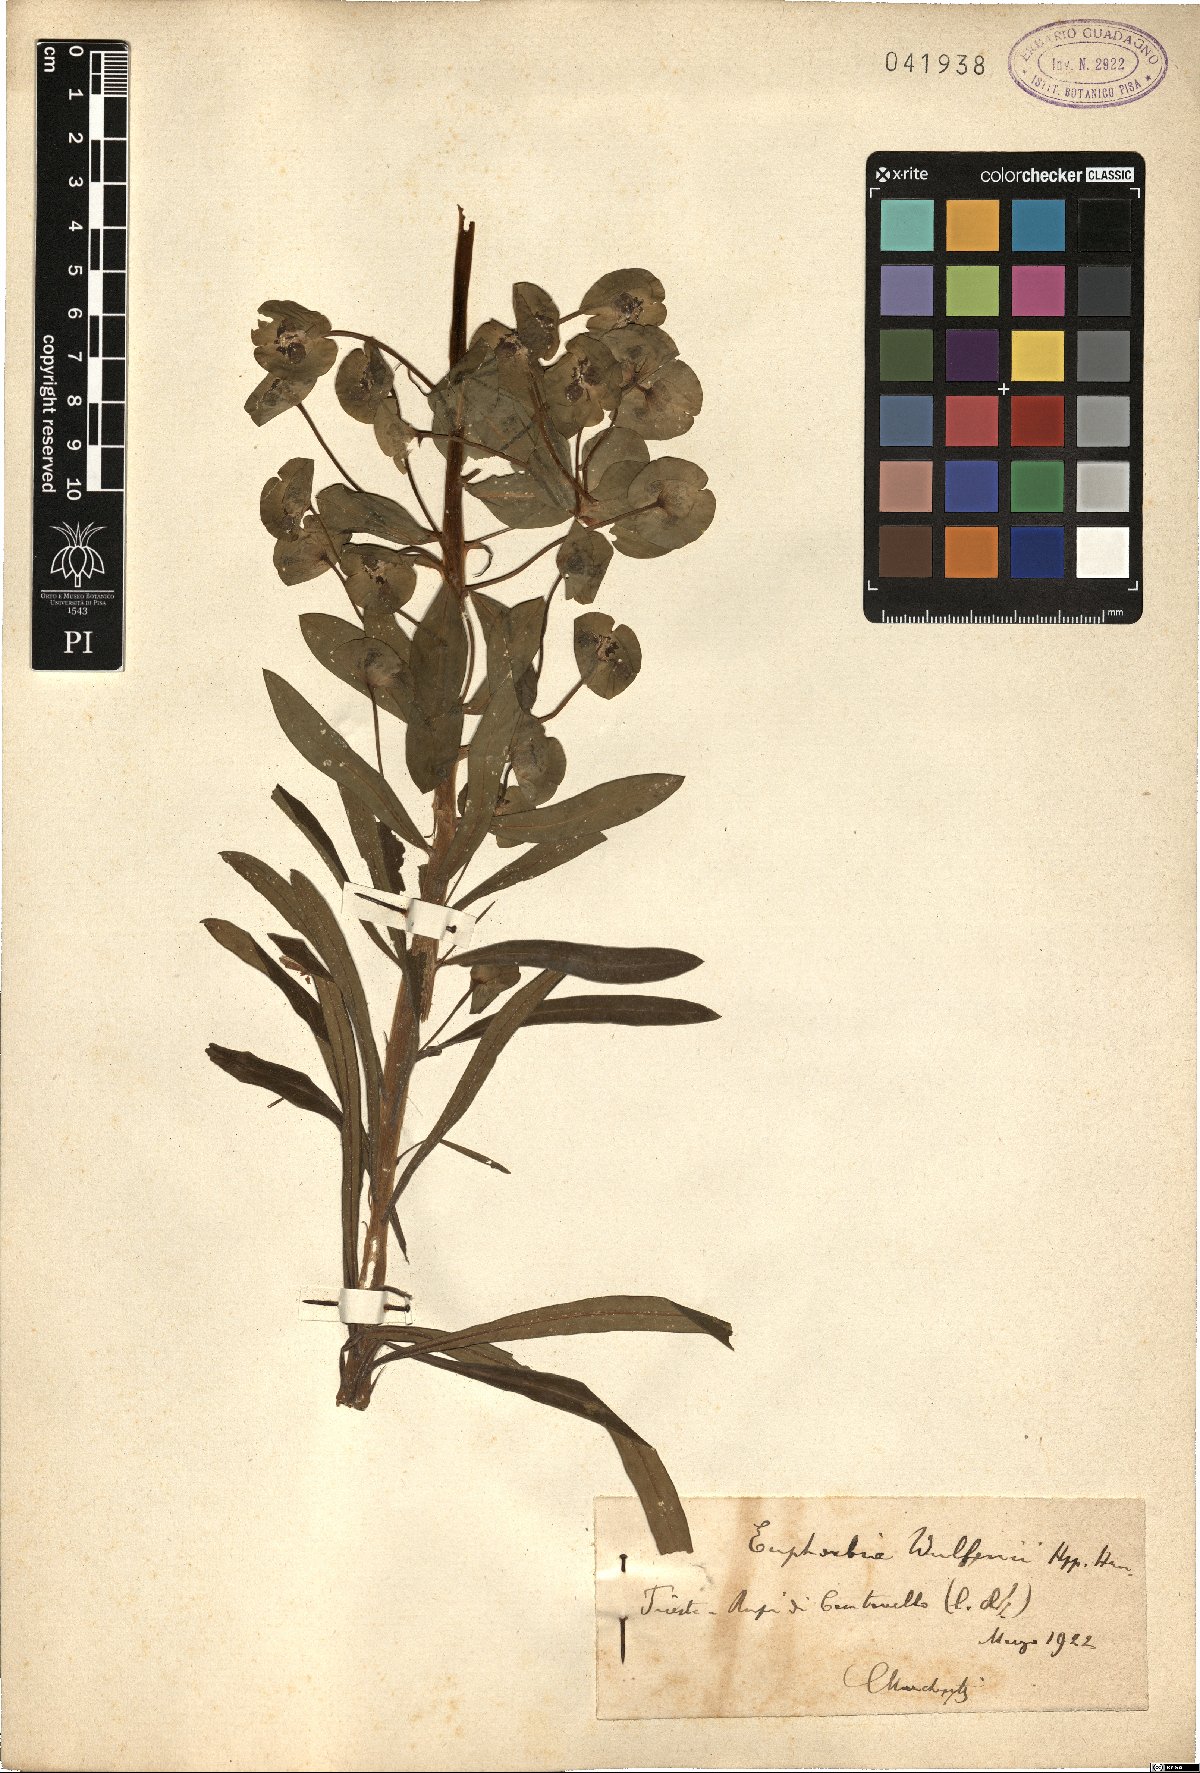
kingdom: Plantae
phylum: Tracheophyta
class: Magnoliopsida
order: Malpighiales
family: Euphorbiaceae
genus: Euphorbia
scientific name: Euphorbia characias
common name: Mediterranean spurge
